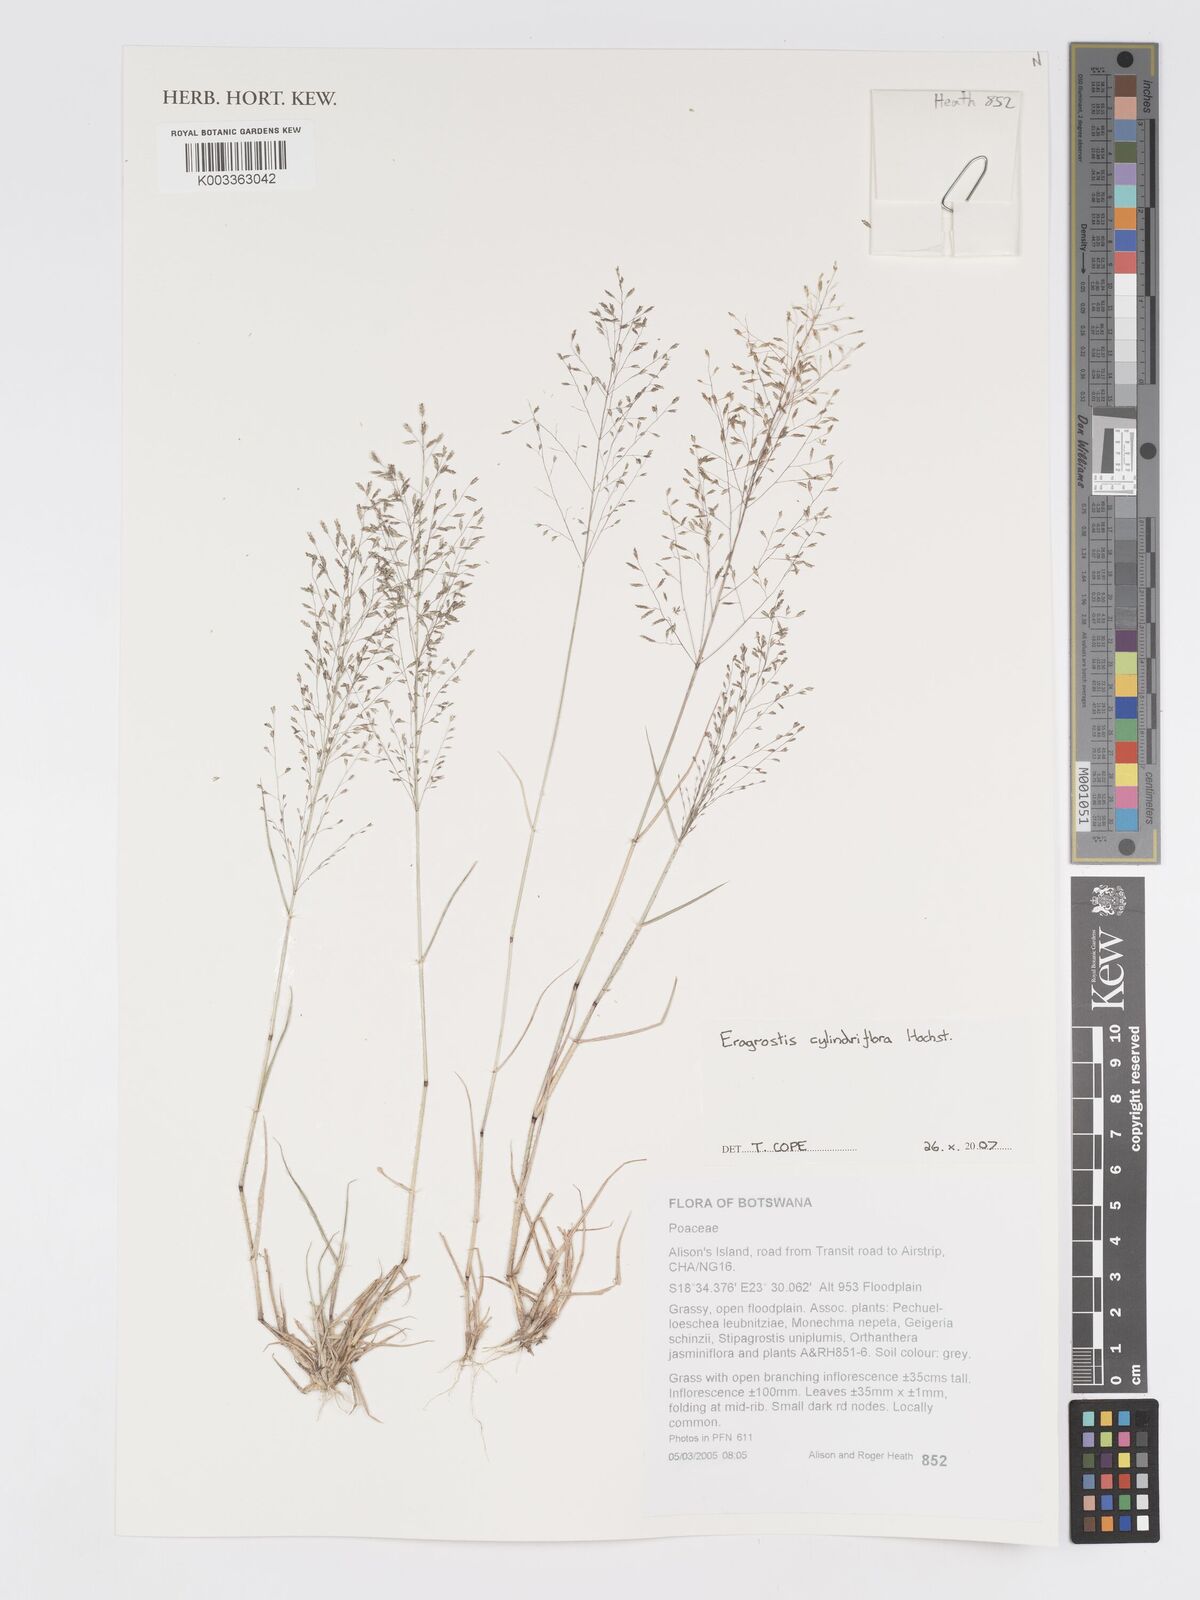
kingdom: Plantae
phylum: Tracheophyta
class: Liliopsida
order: Poales
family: Poaceae
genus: Eragrostis
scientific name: Eragrostis cylindriflora
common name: Cylinderflower lovegrass
